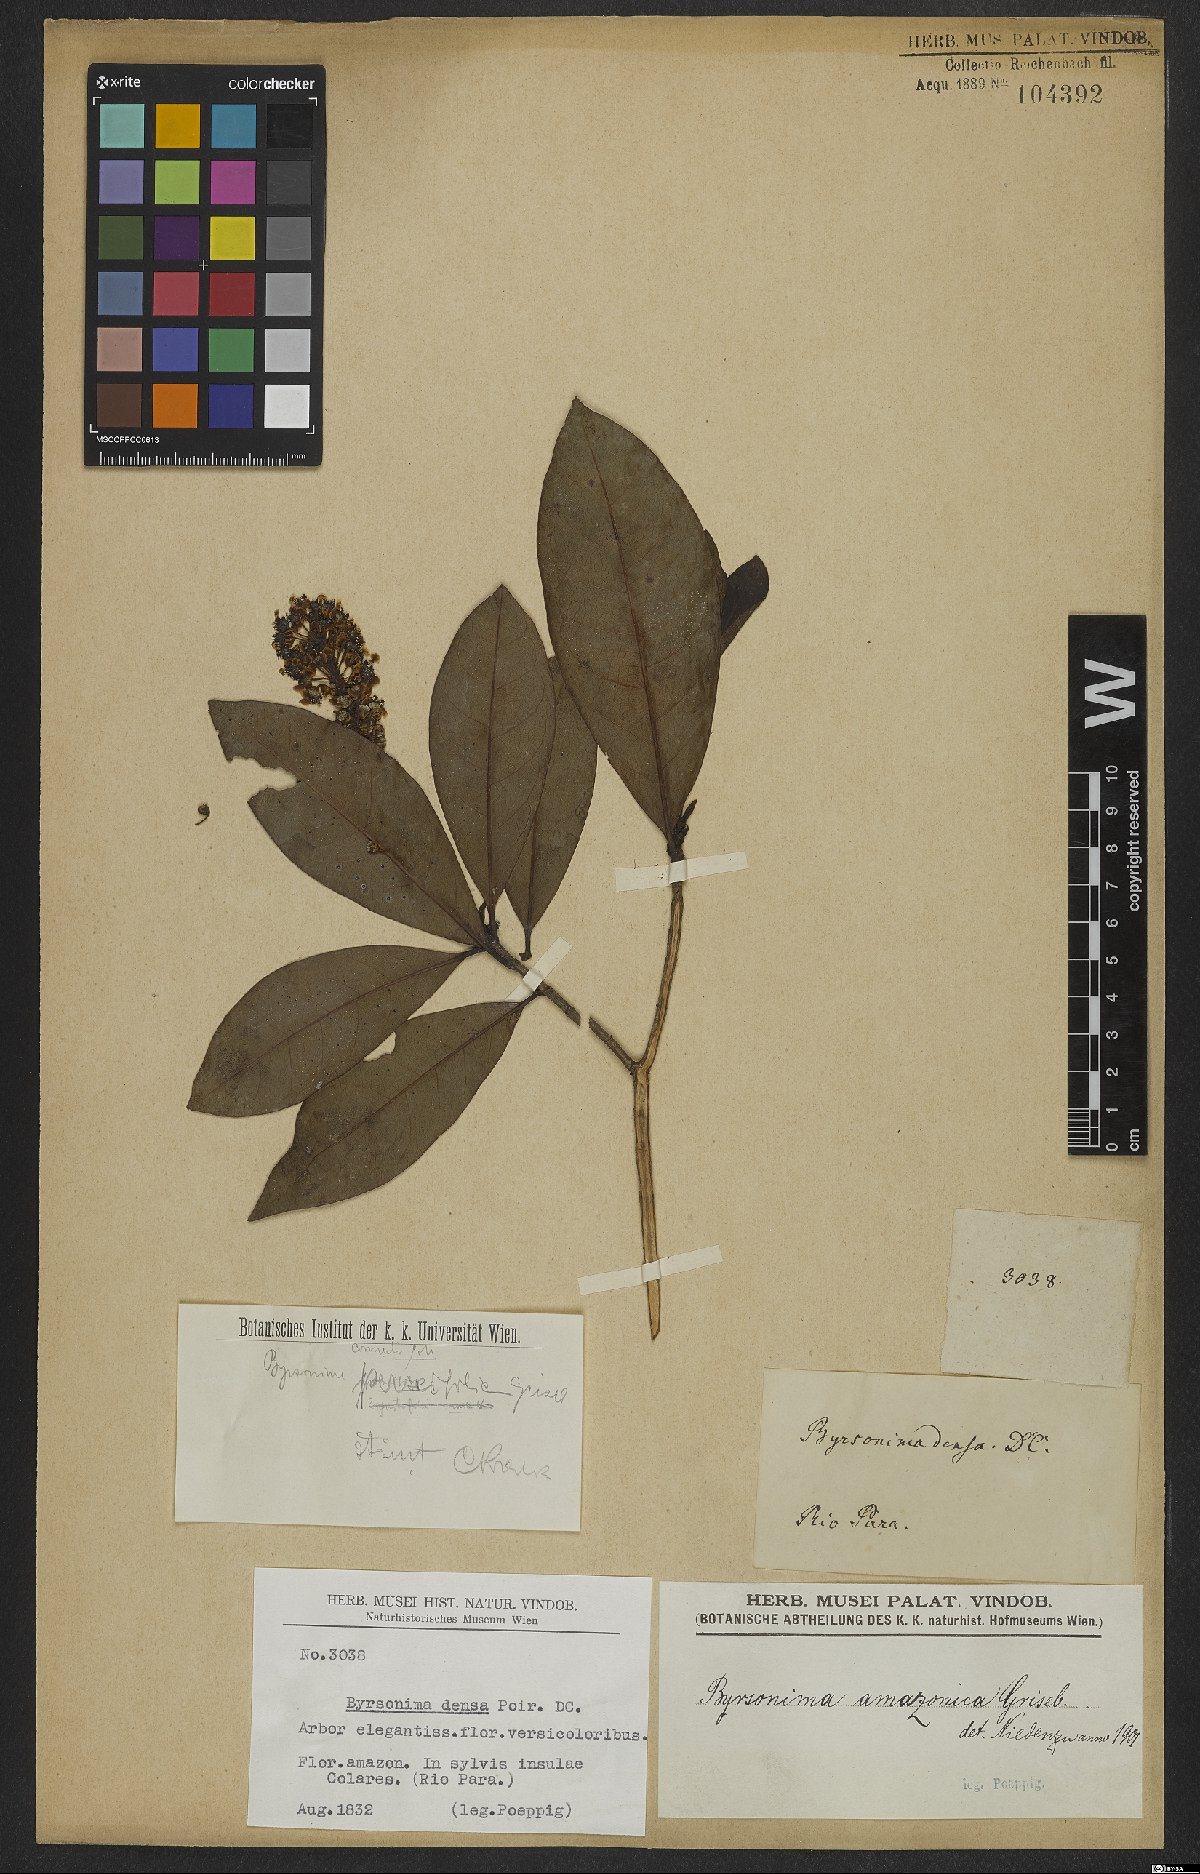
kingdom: Plantae
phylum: Tracheophyta
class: Magnoliopsida
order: Malpighiales
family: Malpighiaceae
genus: Byrsonima
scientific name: Byrsonima densa
